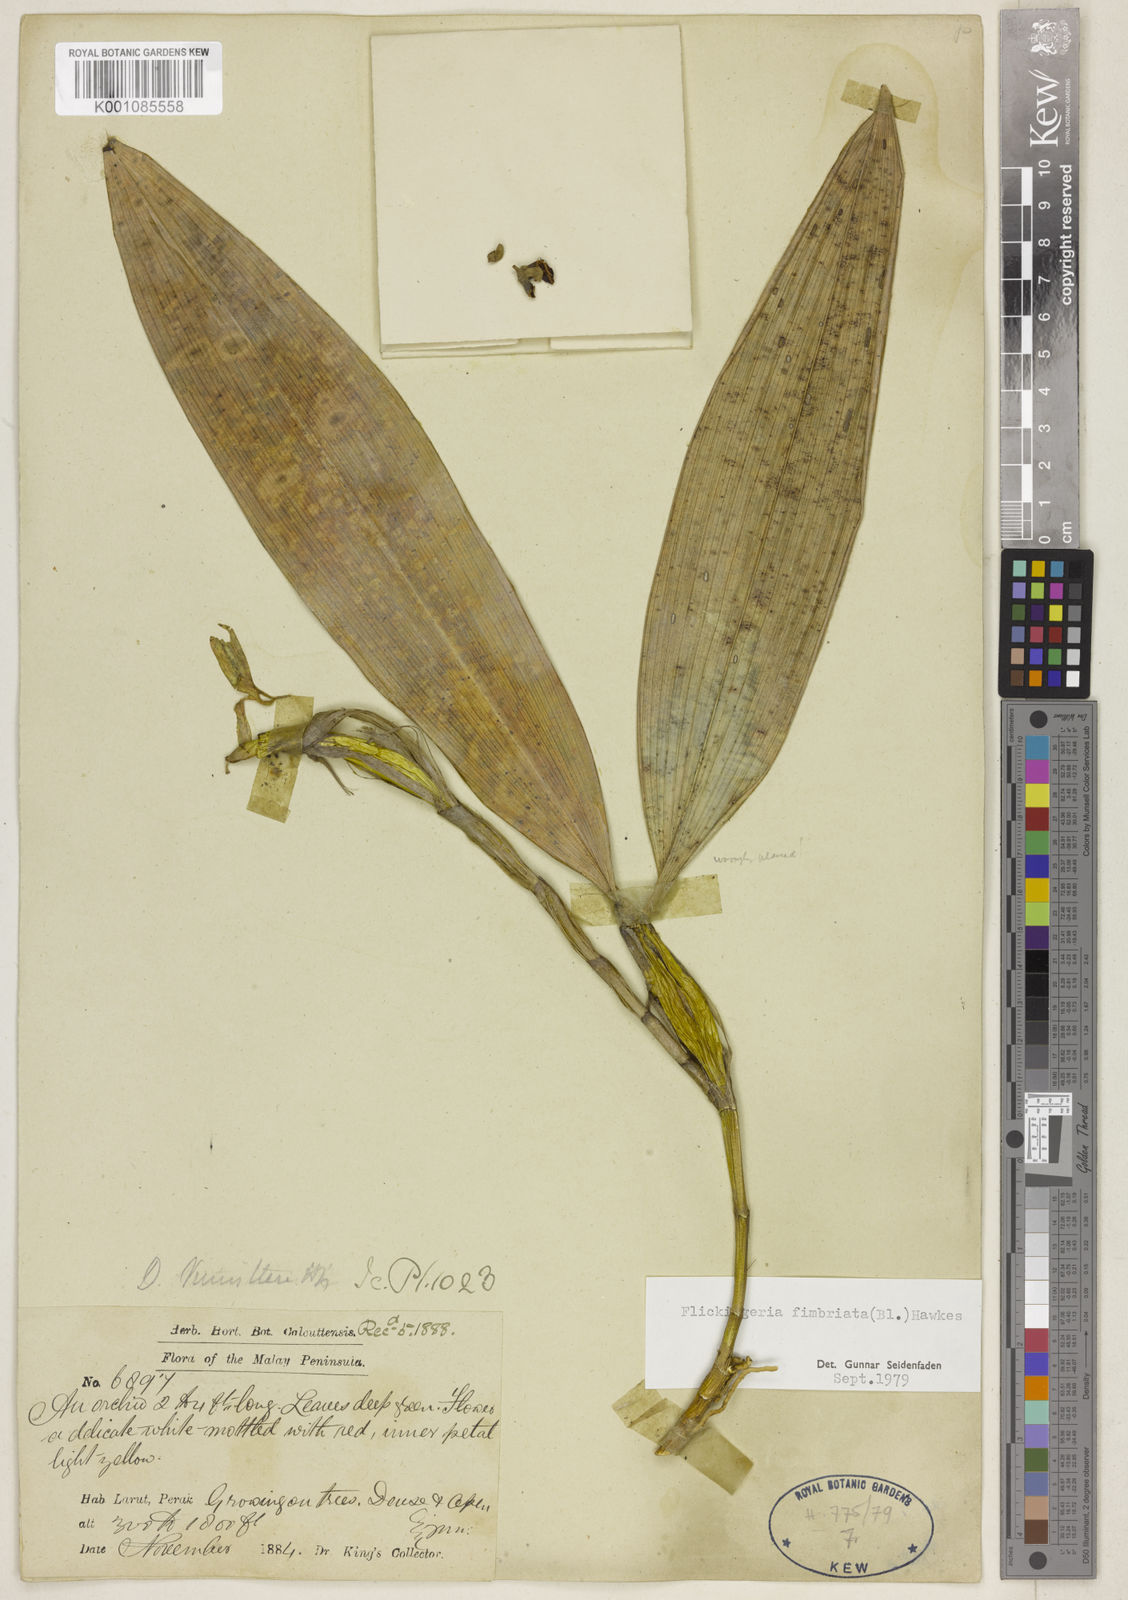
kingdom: Plantae
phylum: Tracheophyta
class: Liliopsida
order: Asparagales
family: Orchidaceae
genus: Dendrobium
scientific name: Dendrobium plicatile
